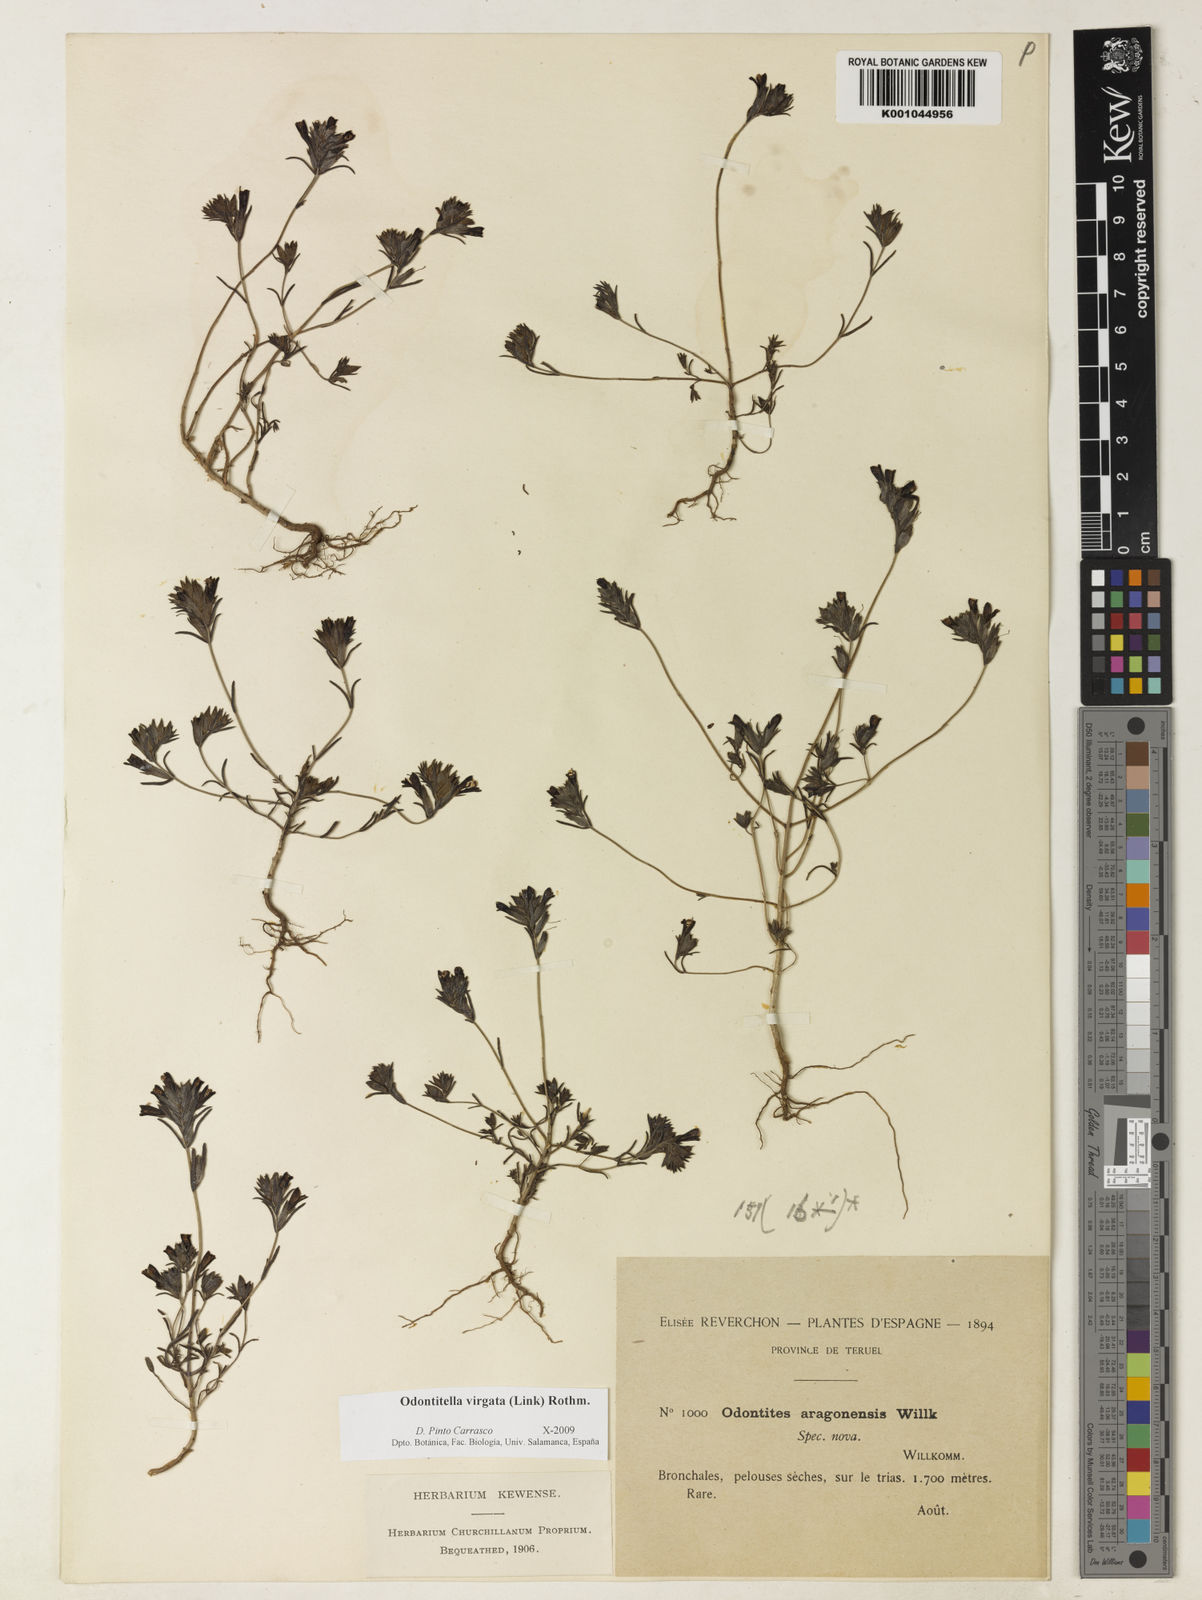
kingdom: Plantae
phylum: Tracheophyta
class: Magnoliopsida
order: Lamiales
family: Orobanchaceae
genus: Odontitella
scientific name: Odontitella virgata
